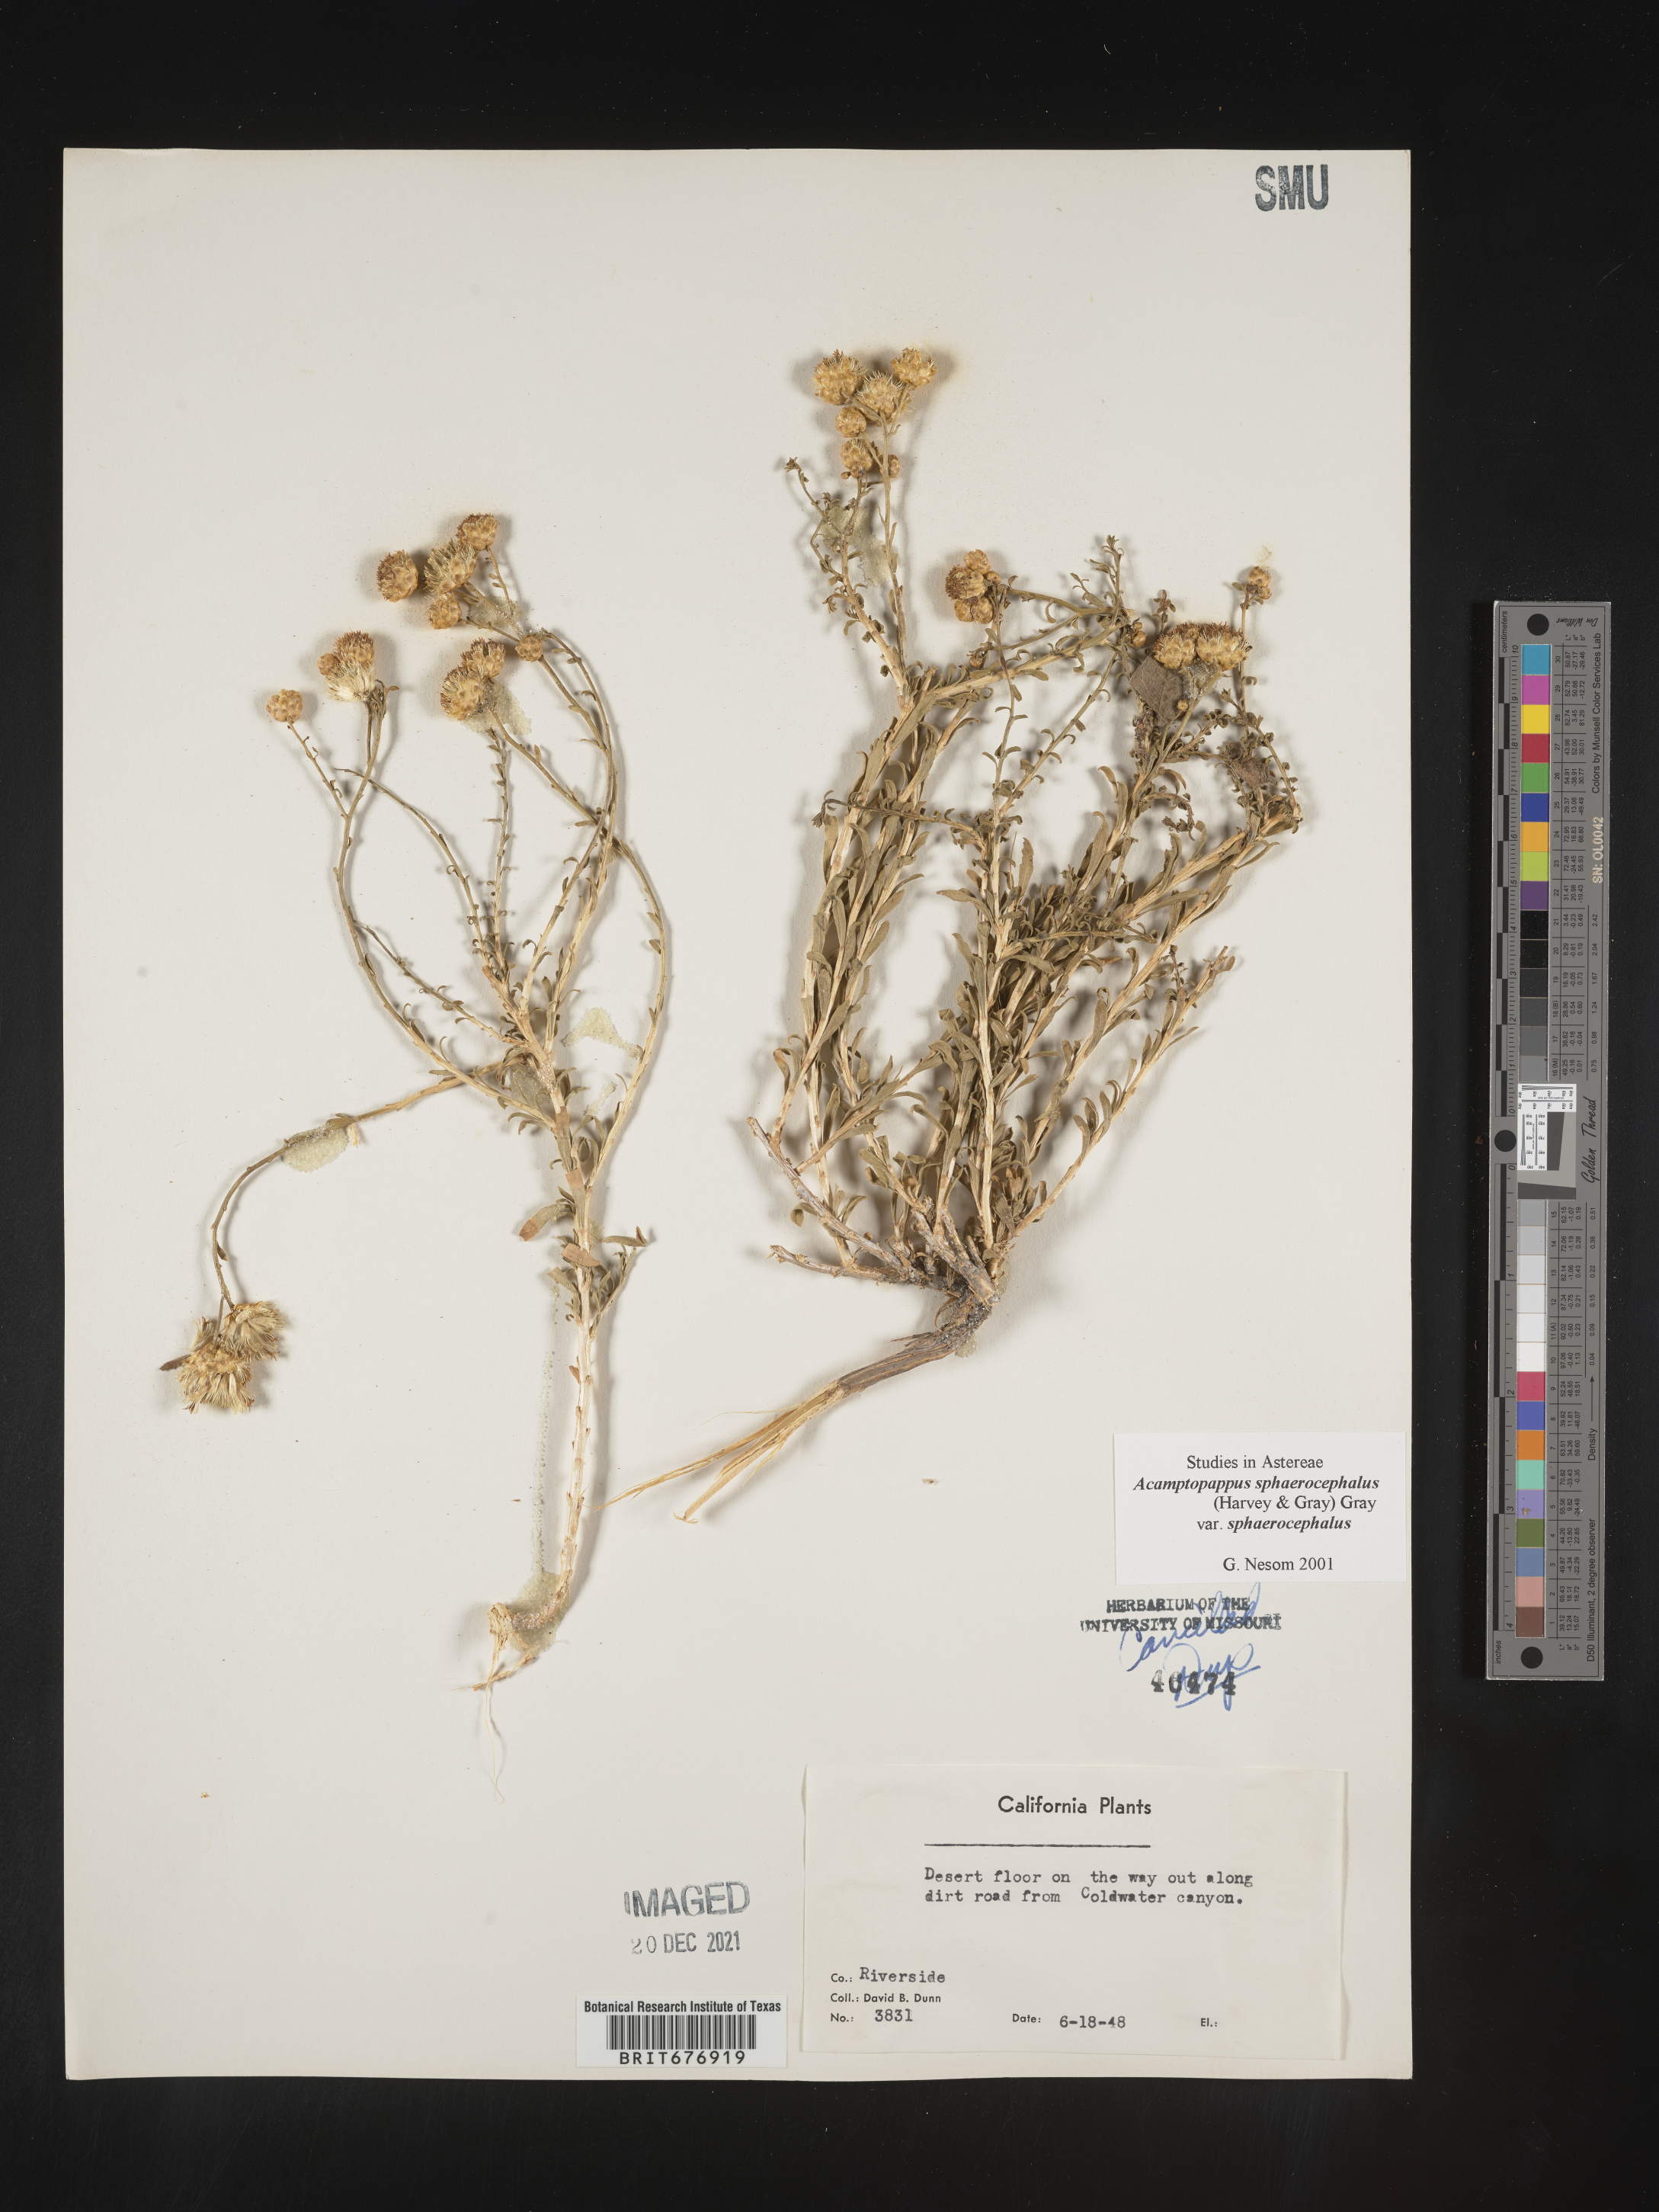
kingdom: Plantae
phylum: Tracheophyta
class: Magnoliopsida
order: Asterales
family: Asteraceae
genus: Acamptopappus
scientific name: Acamptopappus
